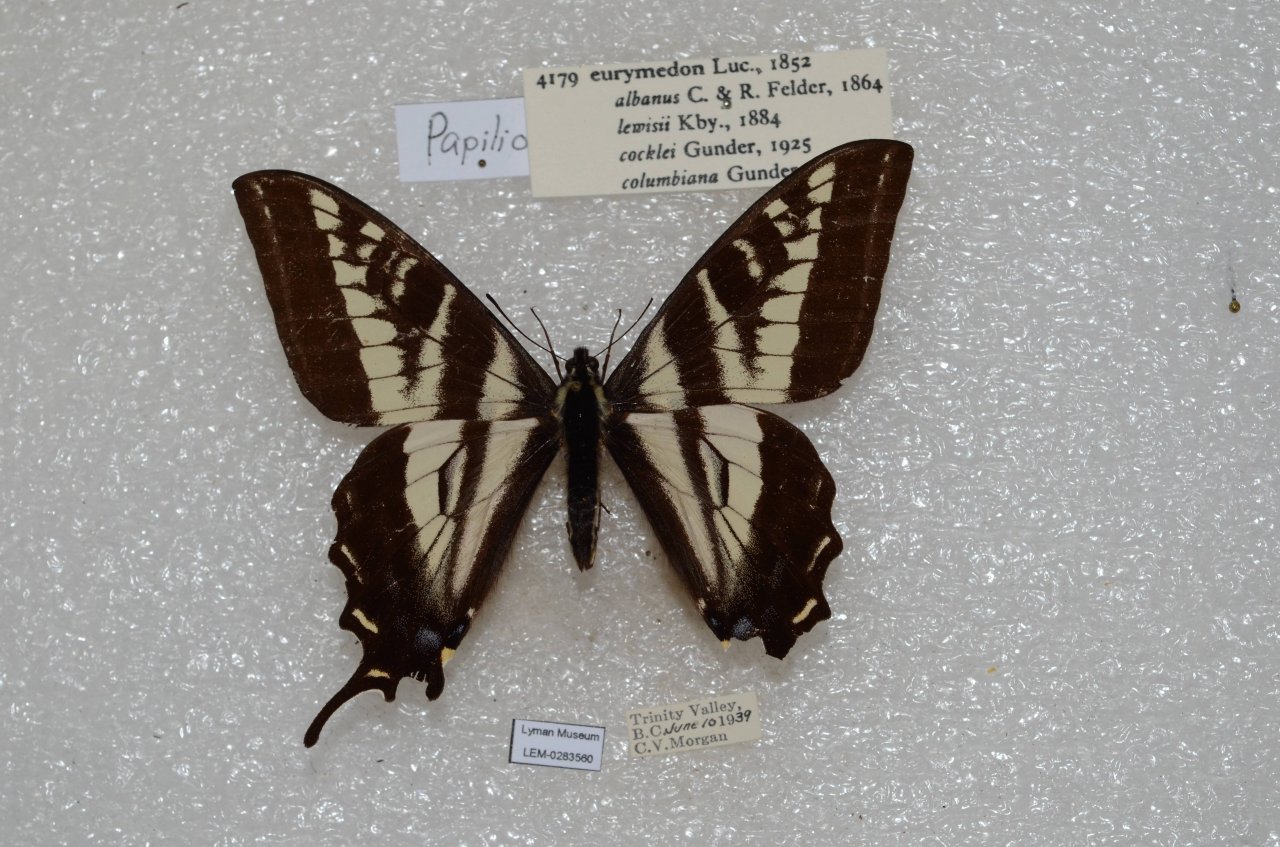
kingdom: Animalia
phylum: Arthropoda
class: Insecta
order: Lepidoptera
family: Papilionidae
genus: Pterourus
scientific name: Pterourus eurymedon
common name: Pale Swallowtail
